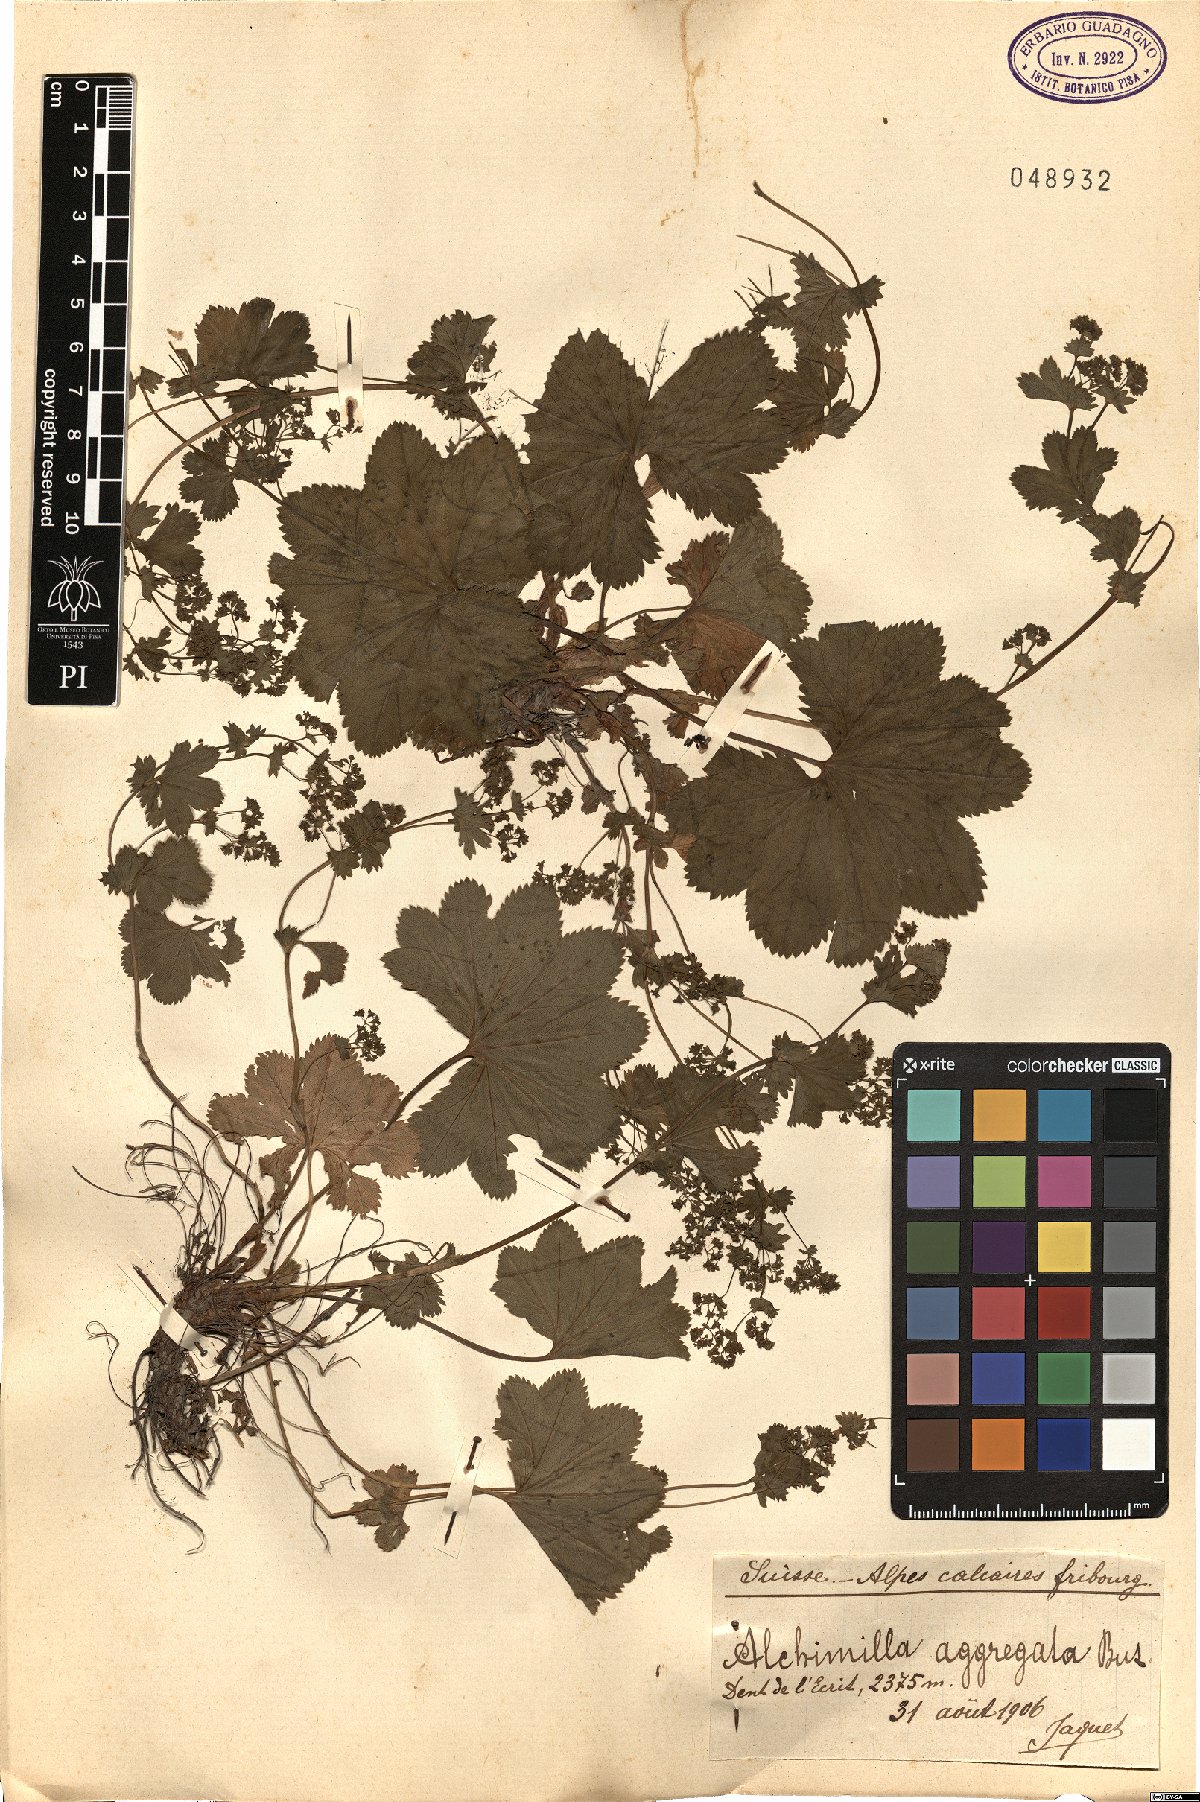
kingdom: Plantae
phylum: Tracheophyta
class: Magnoliopsida
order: Rosales
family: Rosaceae
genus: Alchemilla
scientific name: Alchemilla aggregata
